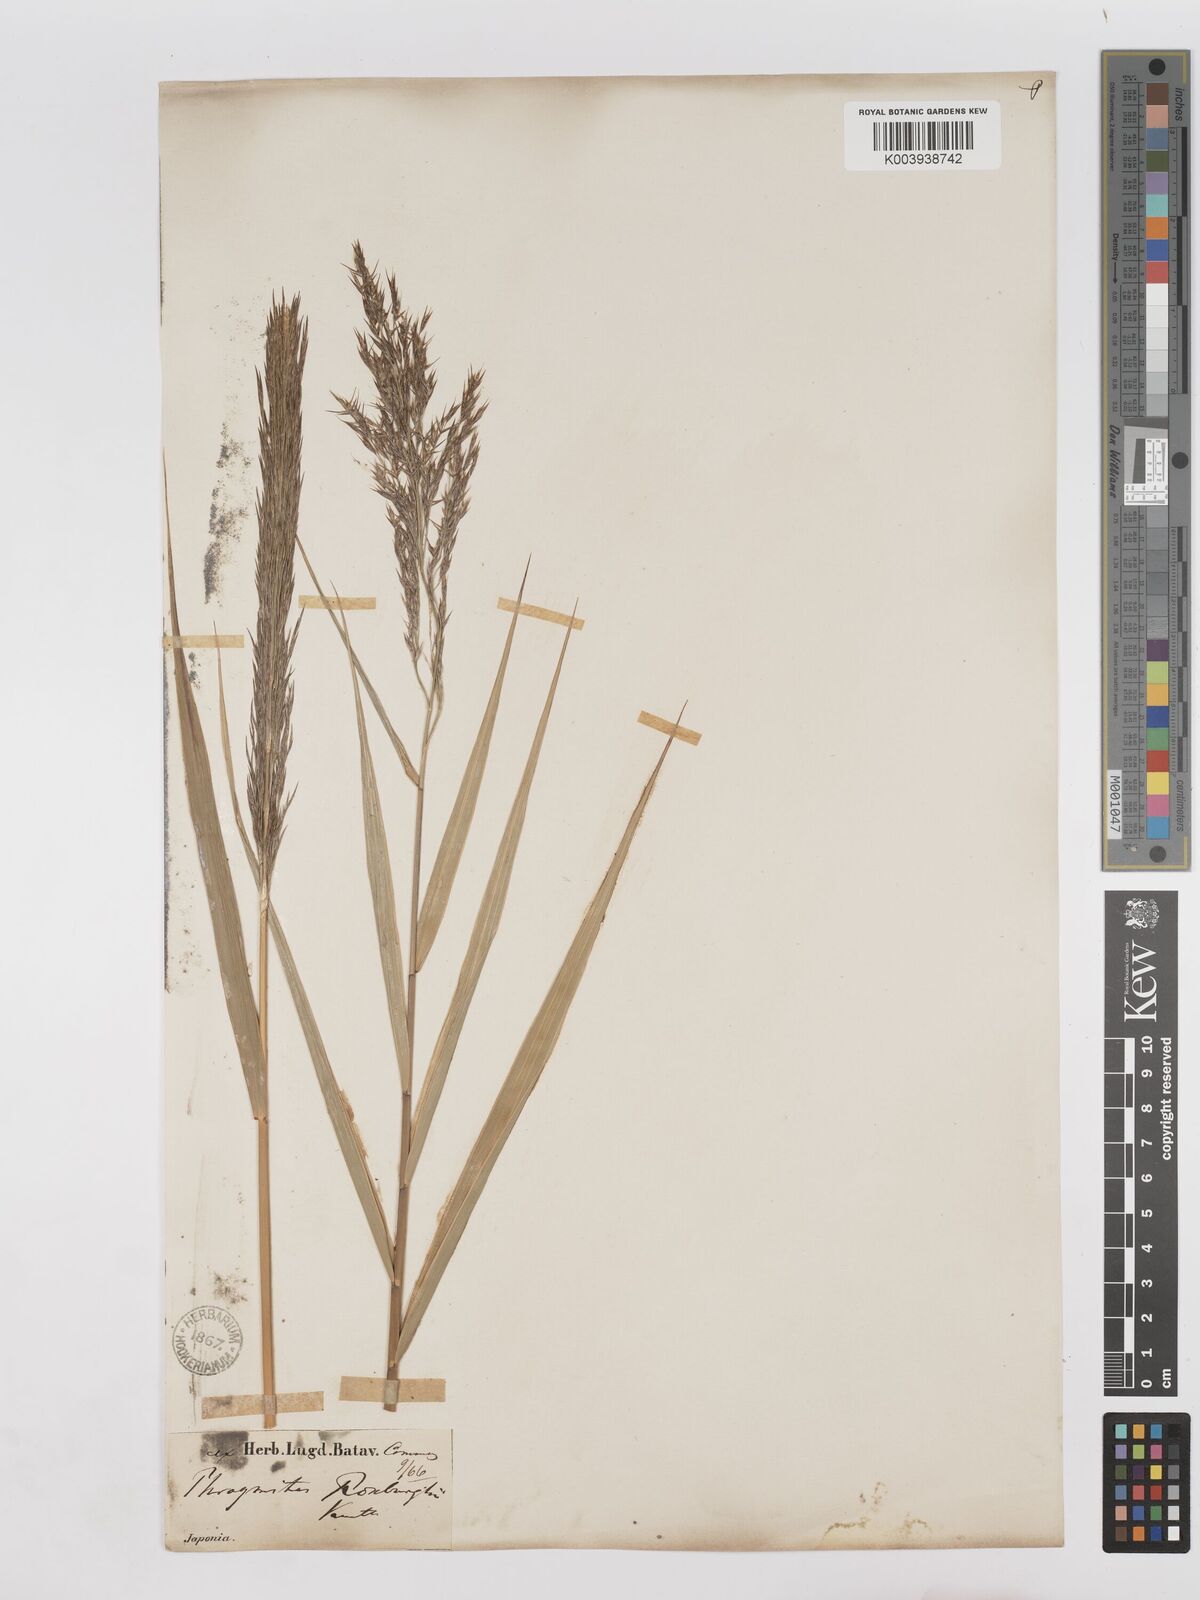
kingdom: Plantae
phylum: Tracheophyta
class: Liliopsida
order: Poales
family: Poaceae
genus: Phragmites
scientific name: Phragmites karka
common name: Tropical reed
